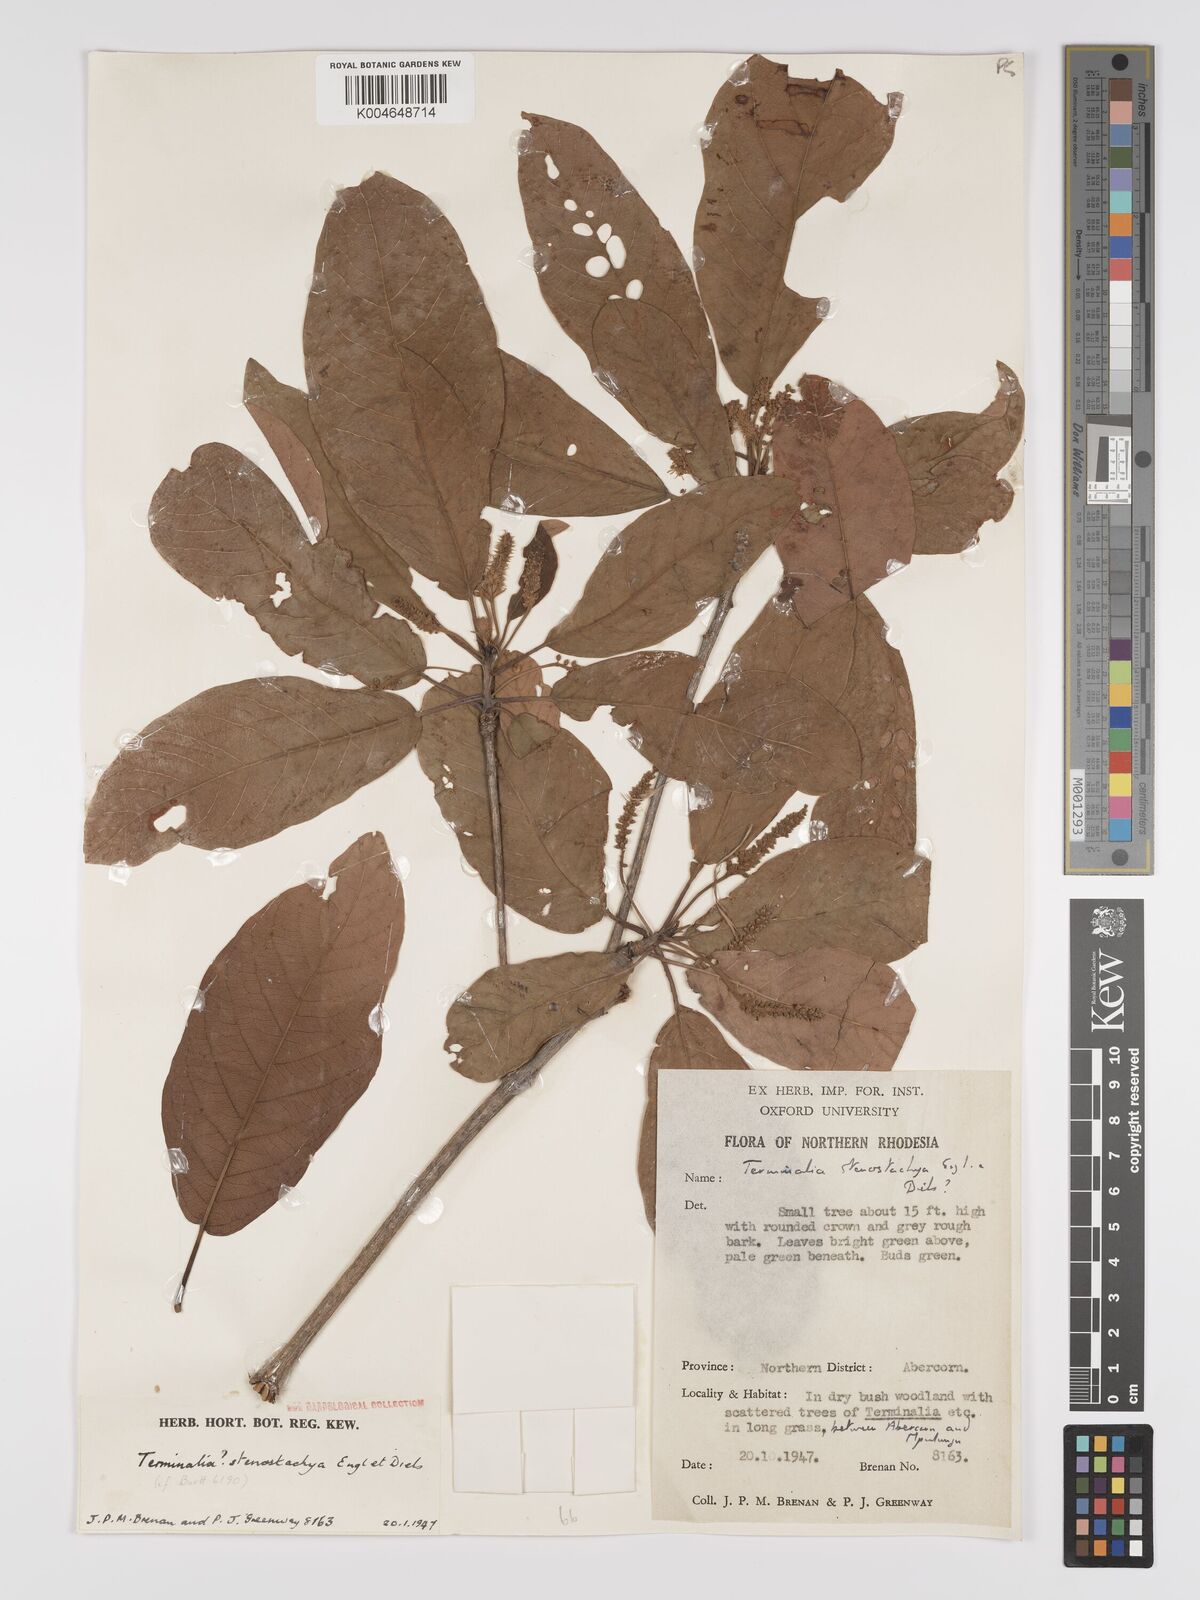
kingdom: Plantae
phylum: Tracheophyta
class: Magnoliopsida
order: Myrtales
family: Combretaceae
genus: Terminalia
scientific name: Terminalia stenostachya
